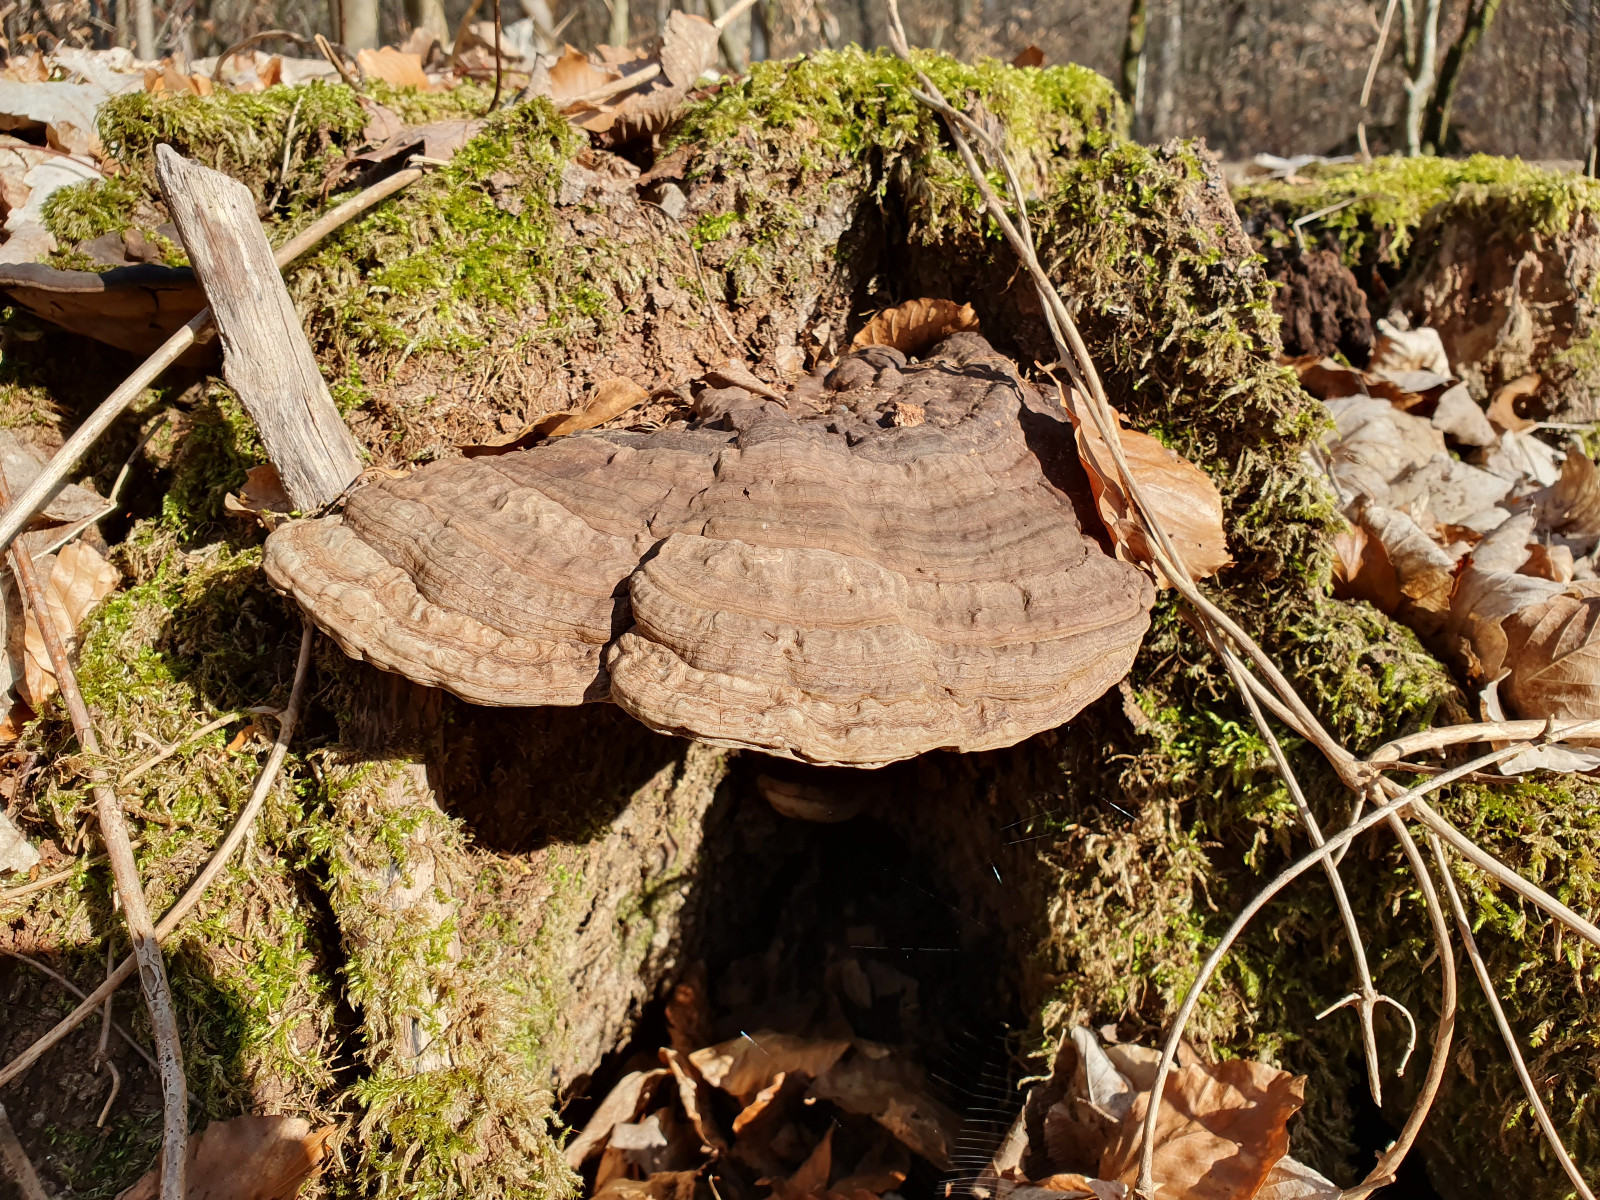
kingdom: Fungi
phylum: Basidiomycota
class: Agaricomycetes
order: Polyporales
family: Polyporaceae
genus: Ganoderma
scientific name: Ganoderma applanatum
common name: flad lakporesvamp
